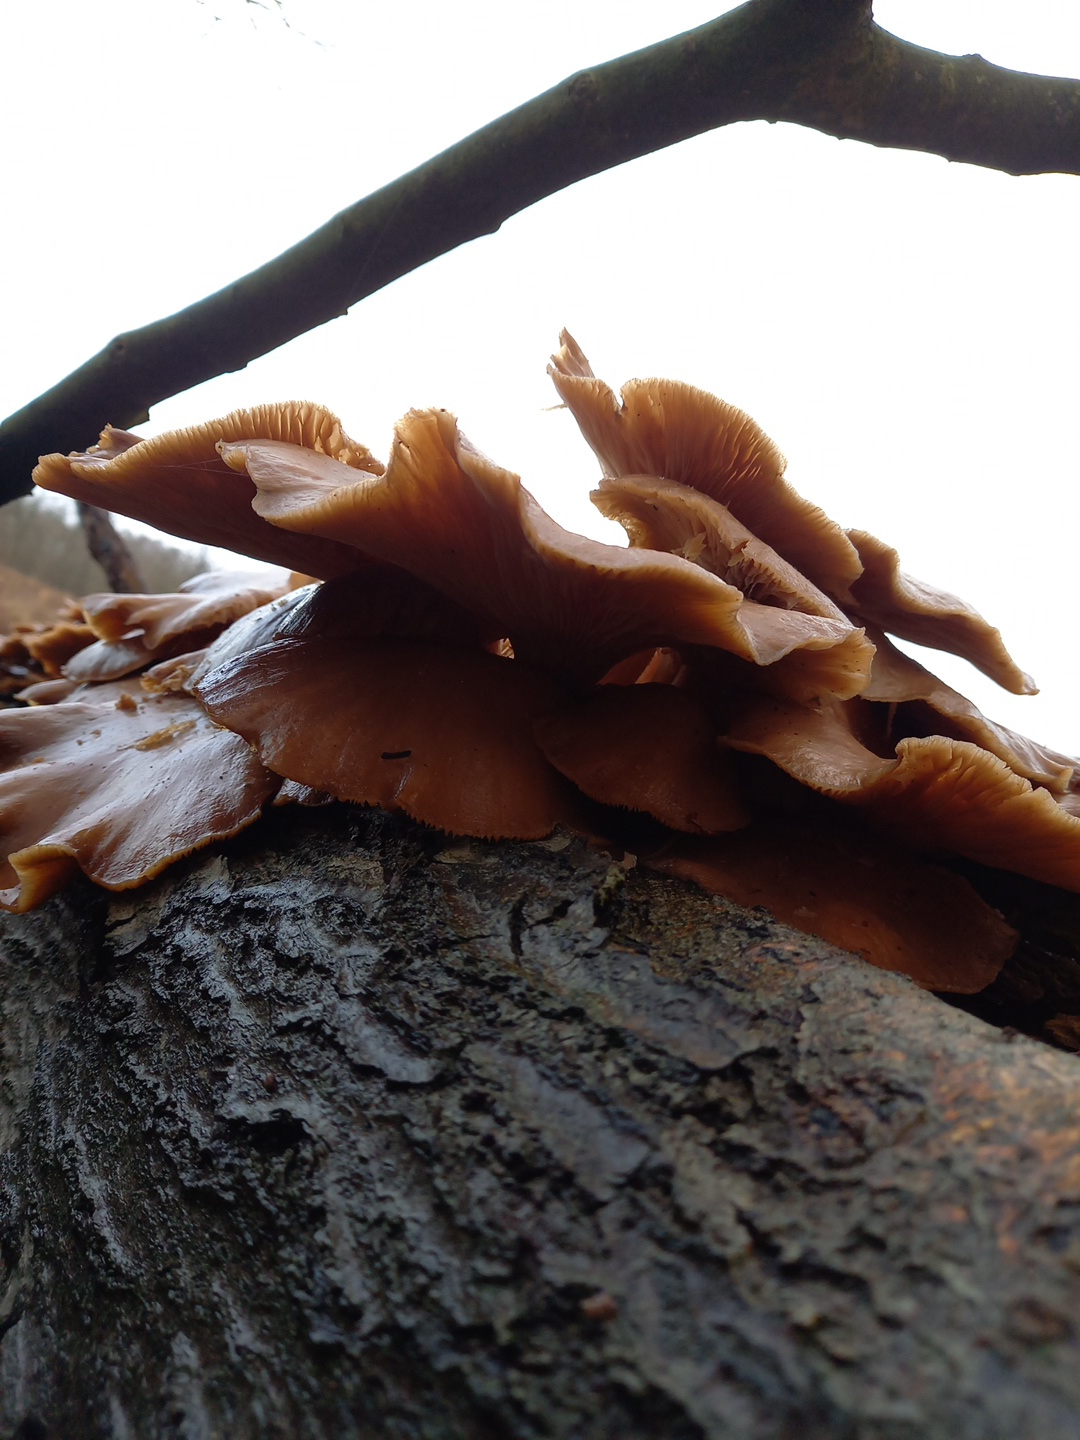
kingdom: Fungi
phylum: Basidiomycota
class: Agaricomycetes
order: Agaricales
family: Pleurotaceae
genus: Pleurotus
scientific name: Pleurotus ostreatus
